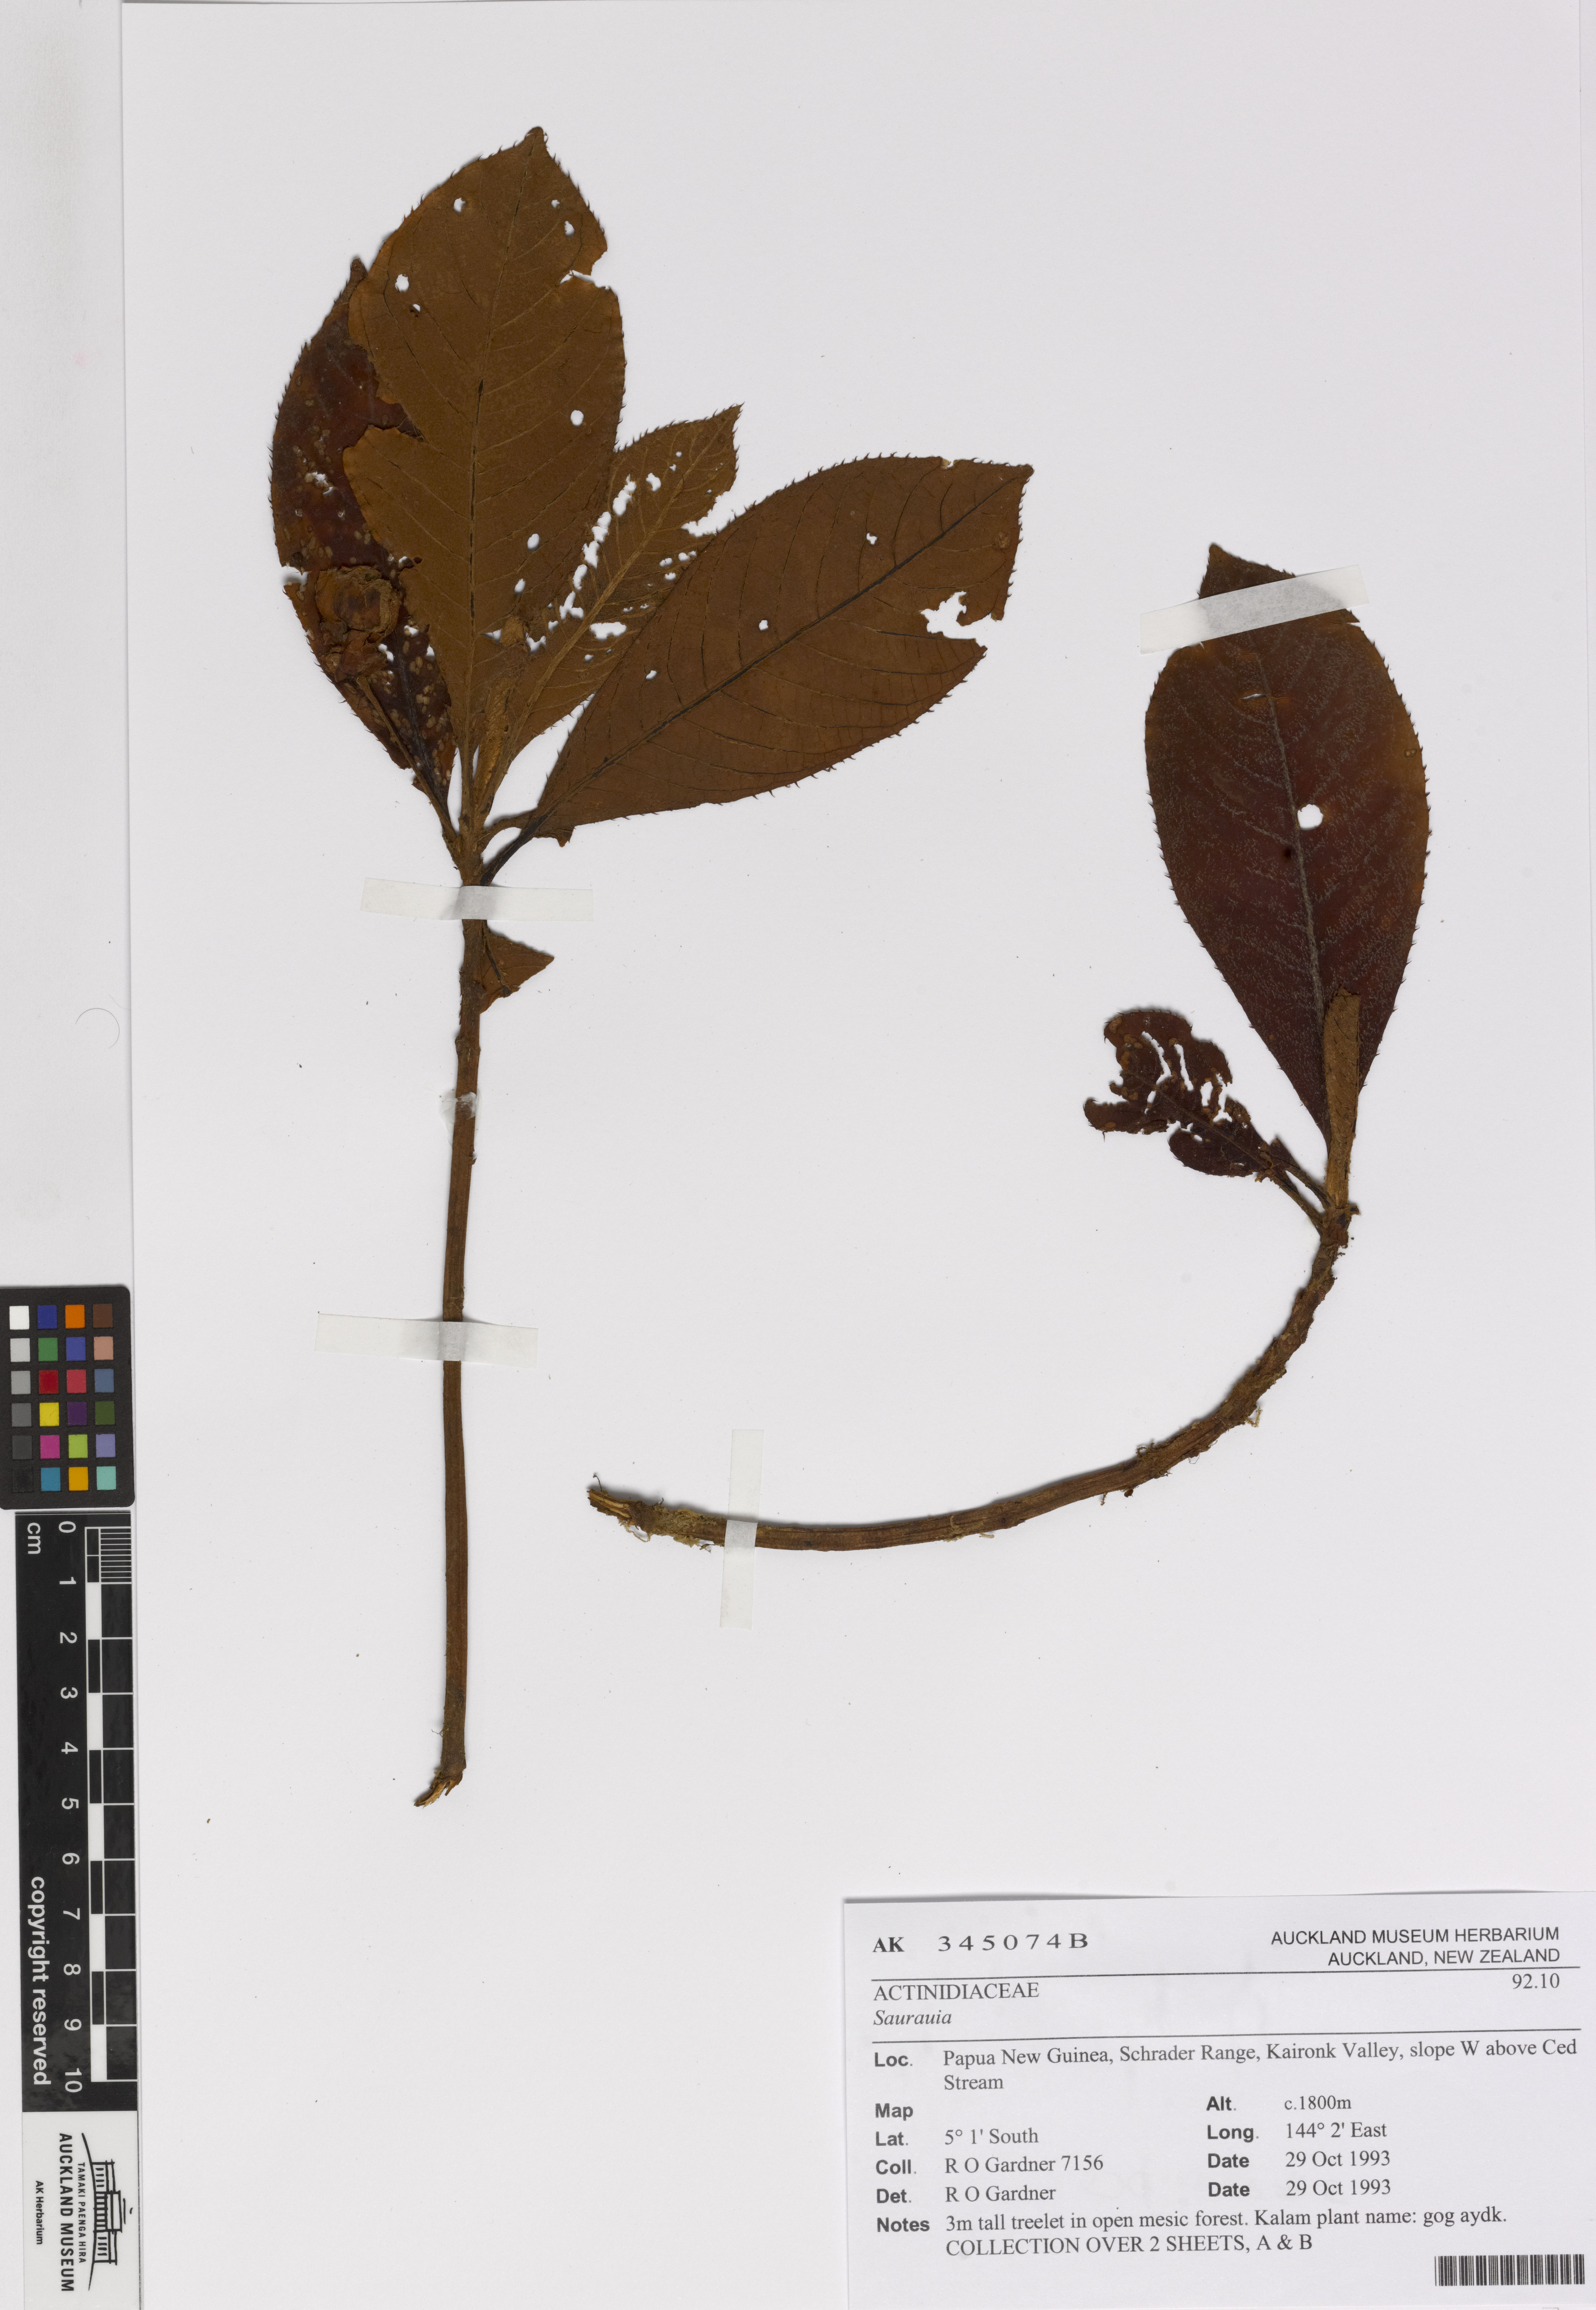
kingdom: Plantae
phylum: Tracheophyta
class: Magnoliopsida
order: Ericales
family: Actinidiaceae
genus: Saurauia
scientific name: Saurauia
